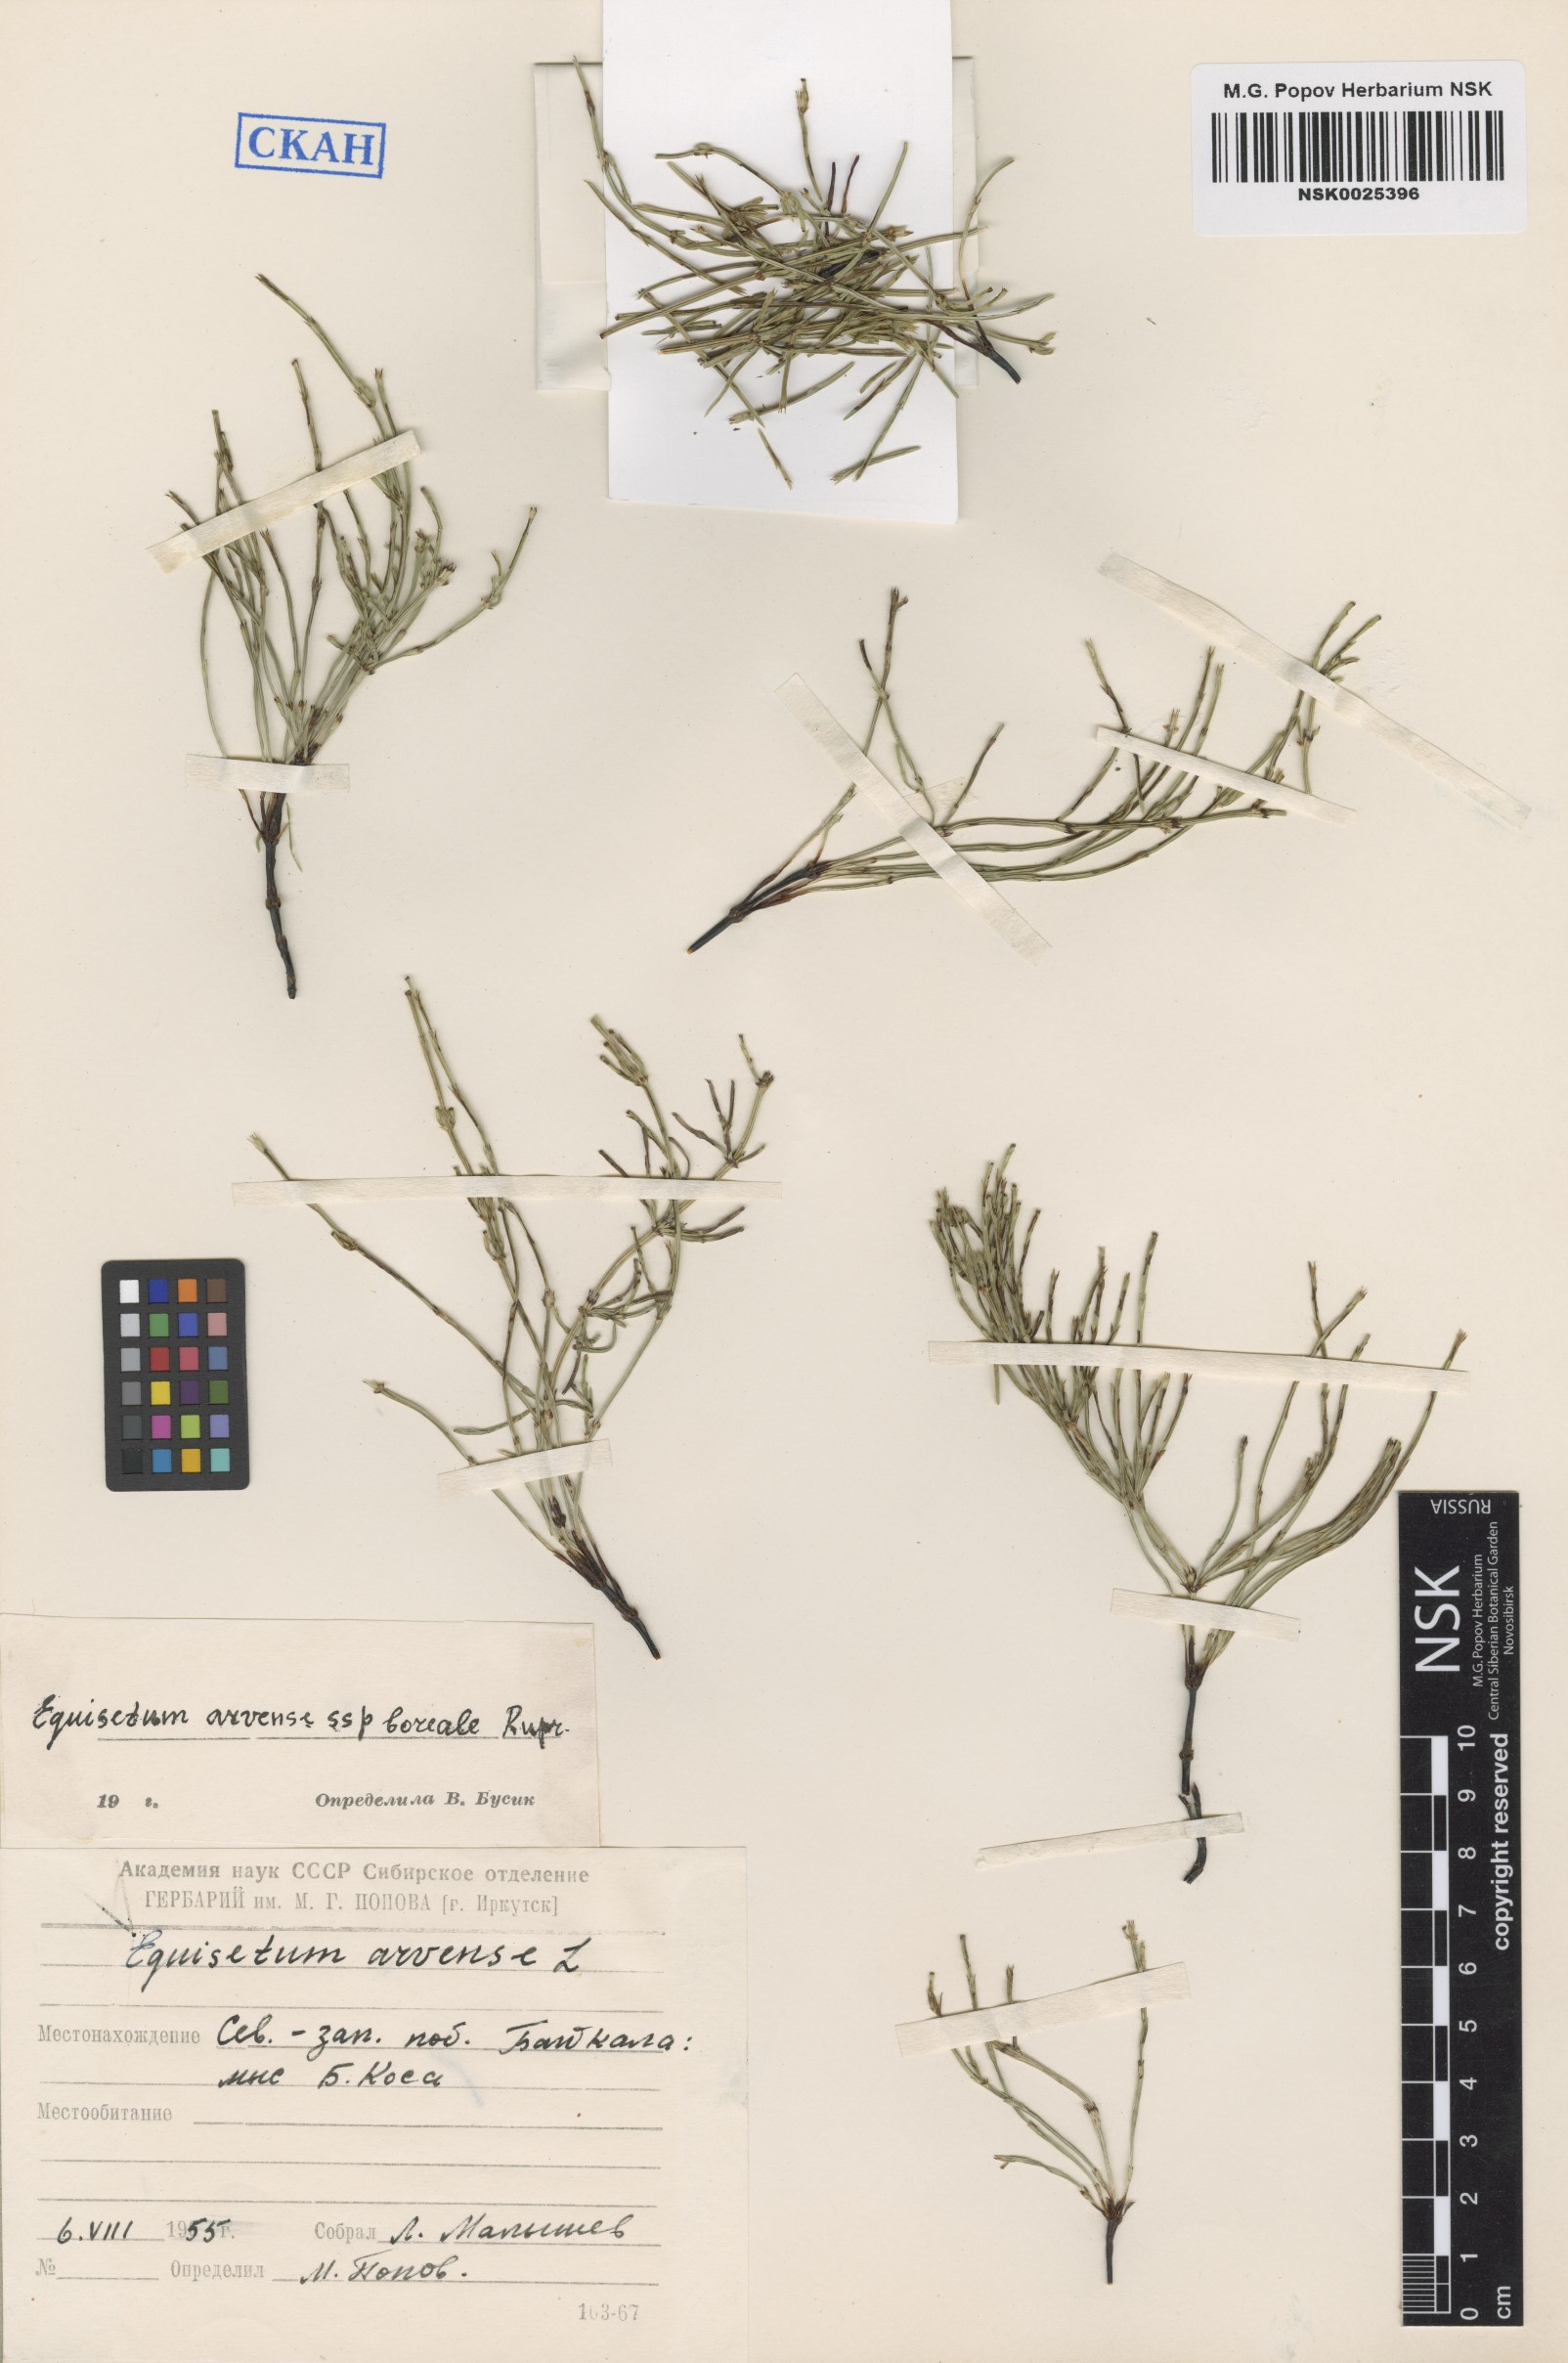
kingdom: Plantae
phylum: Tracheophyta
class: Polypodiopsida
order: Equisetales
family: Equisetaceae
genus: Equisetum
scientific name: Equisetum arvense
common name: Field horsetail
